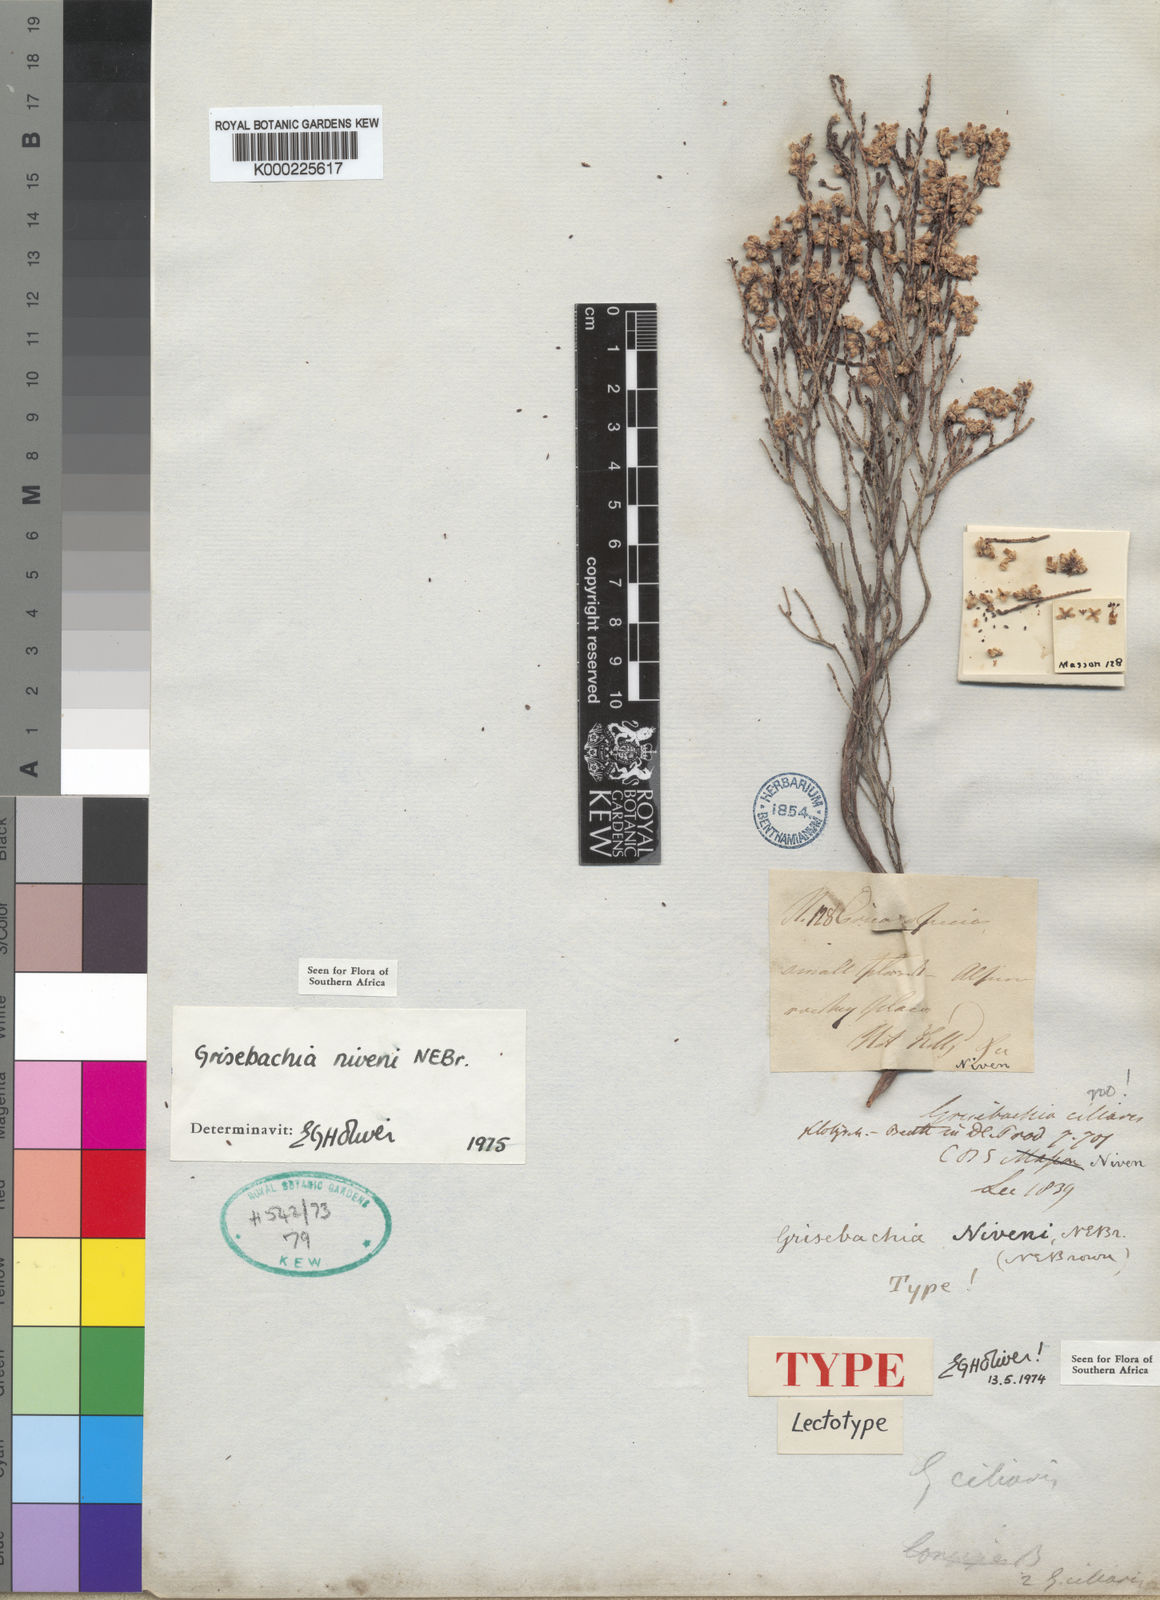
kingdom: Plantae
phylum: Tracheophyta
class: Magnoliopsida
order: Ericales
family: Ericaceae
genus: Erica
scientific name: Erica plumosa
